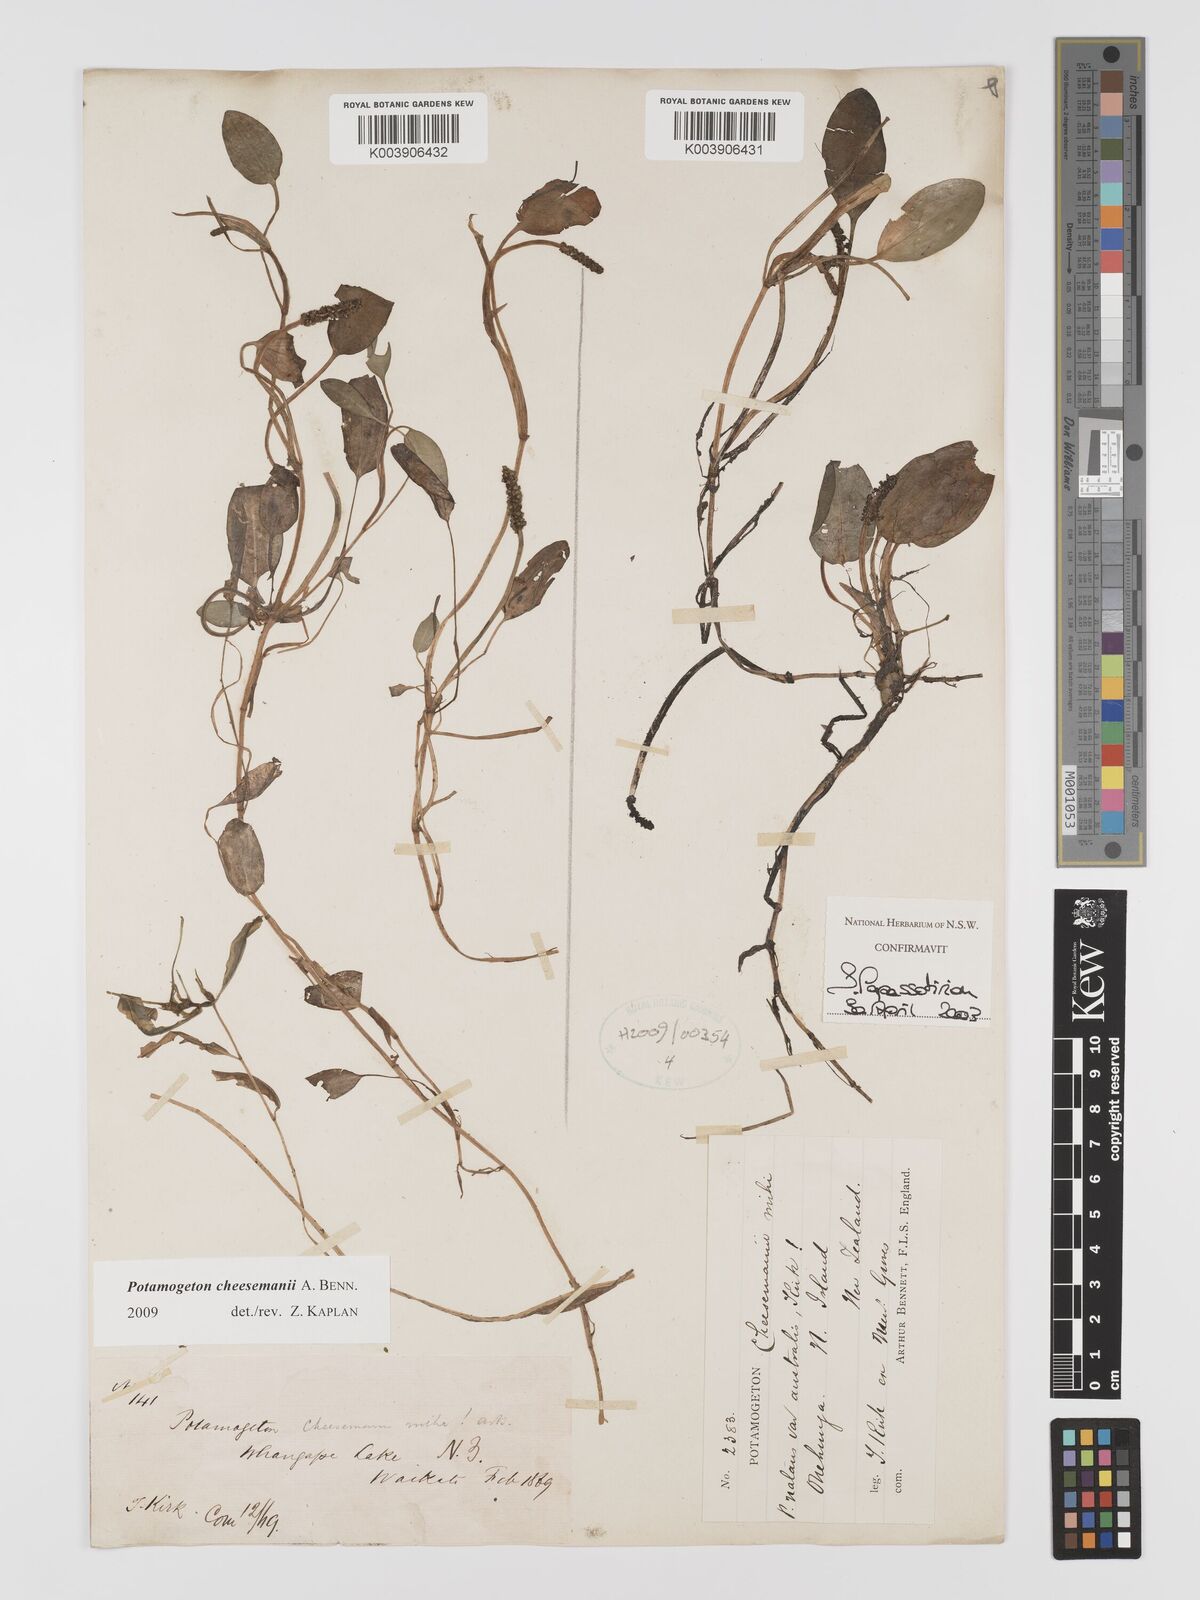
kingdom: Plantae
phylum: Tracheophyta
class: Liliopsida
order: Alismatales
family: Potamogetonaceae
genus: Potamogeton
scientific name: Potamogeton cheesemanii
